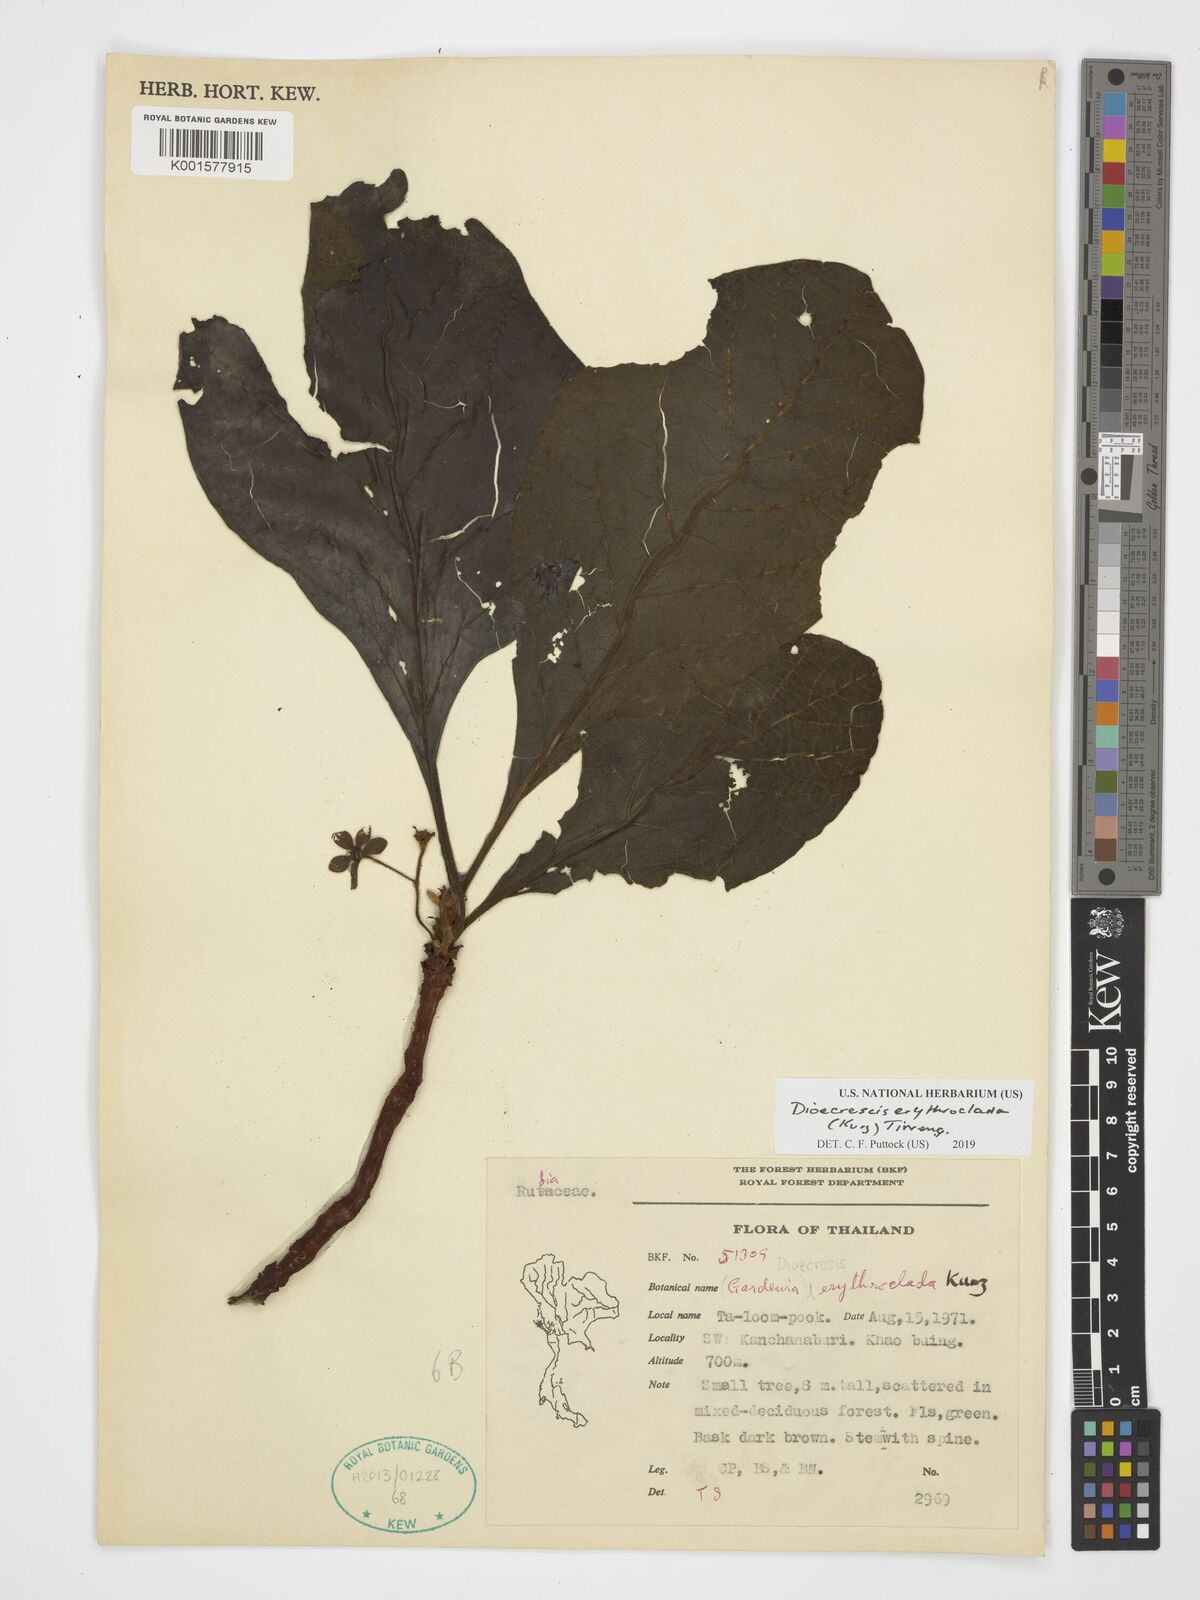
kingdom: Plantae
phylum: Tracheophyta
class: Magnoliopsida
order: Gentianales
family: Rubiaceae
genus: Dioecrescis
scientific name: Dioecrescis erythroclada
